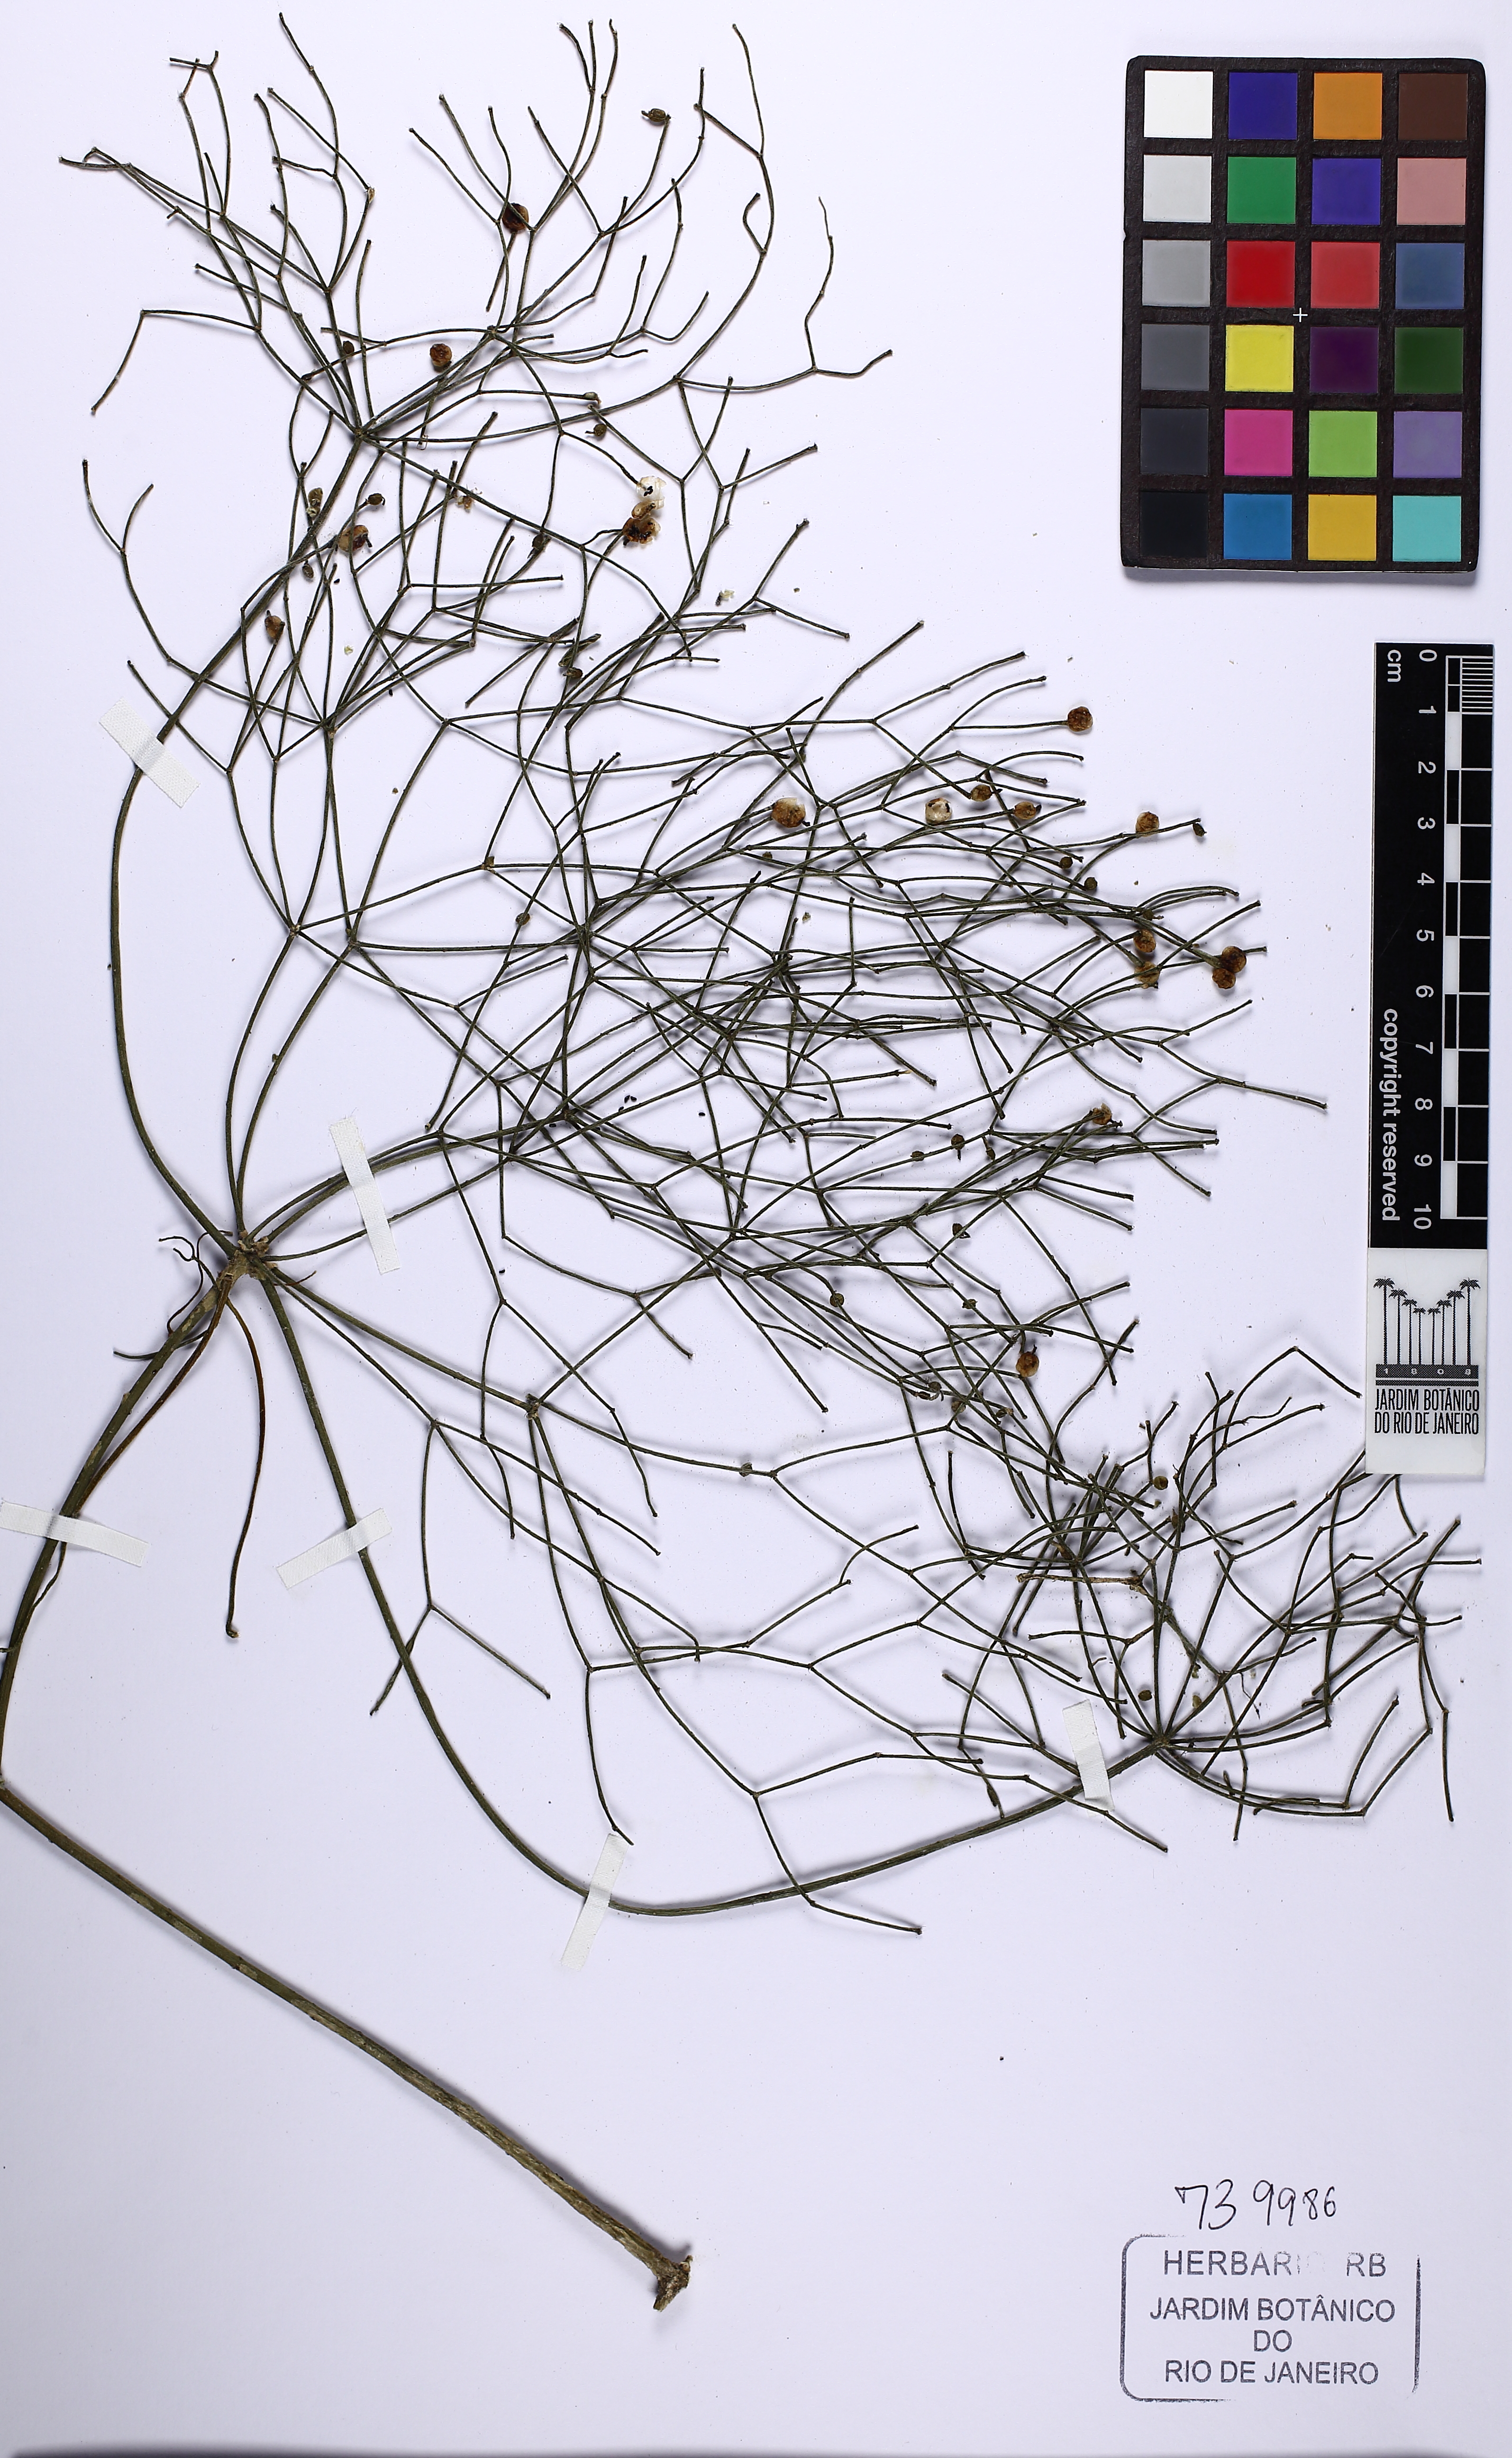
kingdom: Plantae
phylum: Tracheophyta
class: Magnoliopsida
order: Caryophyllales
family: Cactaceae
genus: Rhipsalis
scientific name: Rhipsalis teres
